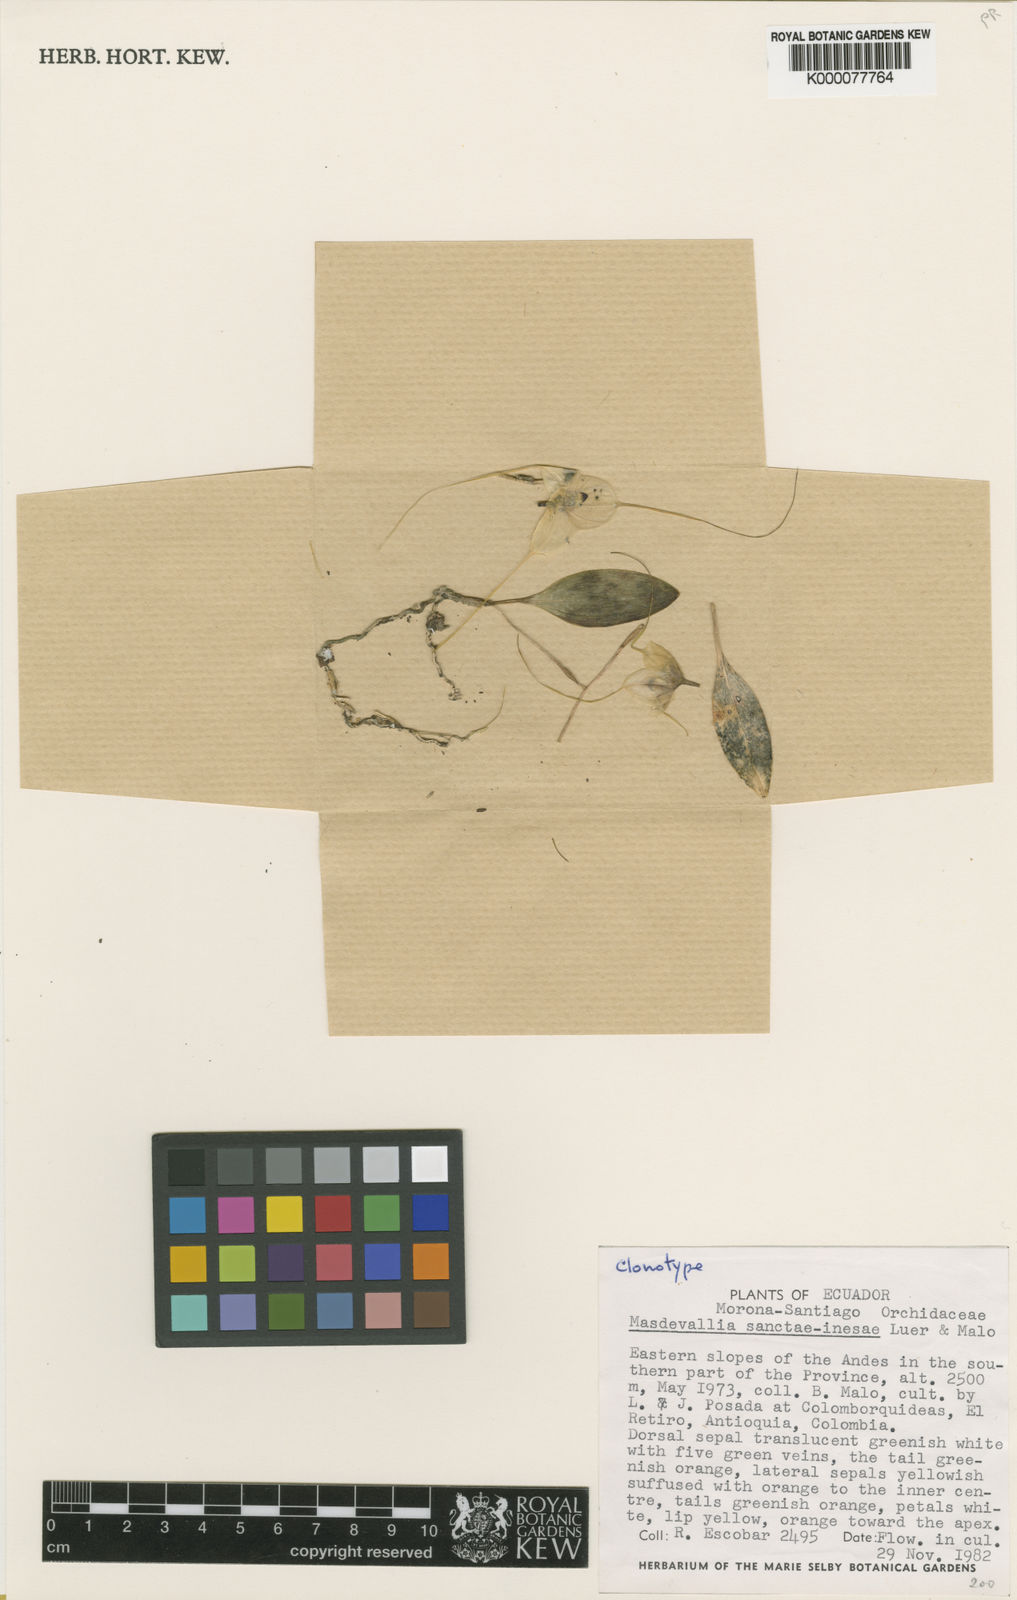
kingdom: Plantae
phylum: Tracheophyta
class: Liliopsida
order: Asparagales
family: Orchidaceae
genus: Masdevallia
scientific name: Masdevallia sanctae-inesae
